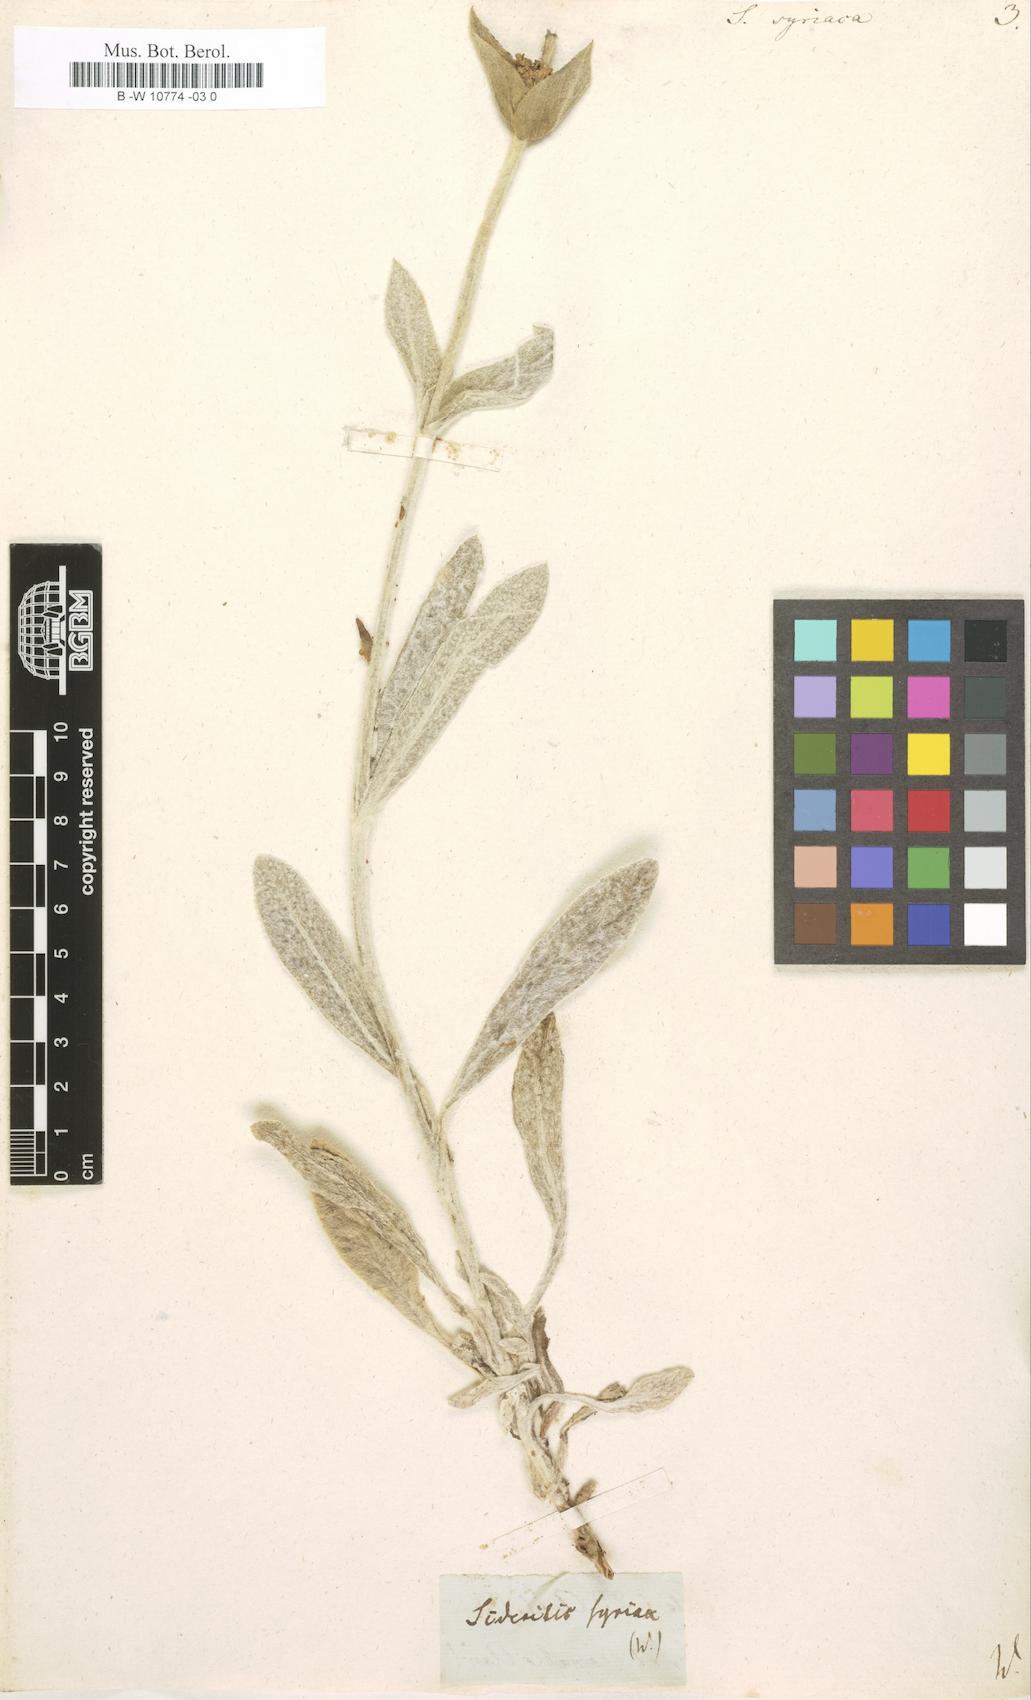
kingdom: Plantae
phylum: Tracheophyta
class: Magnoliopsida
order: Lamiales
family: Lamiaceae
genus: Sideritis
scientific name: Sideritis syriaca
